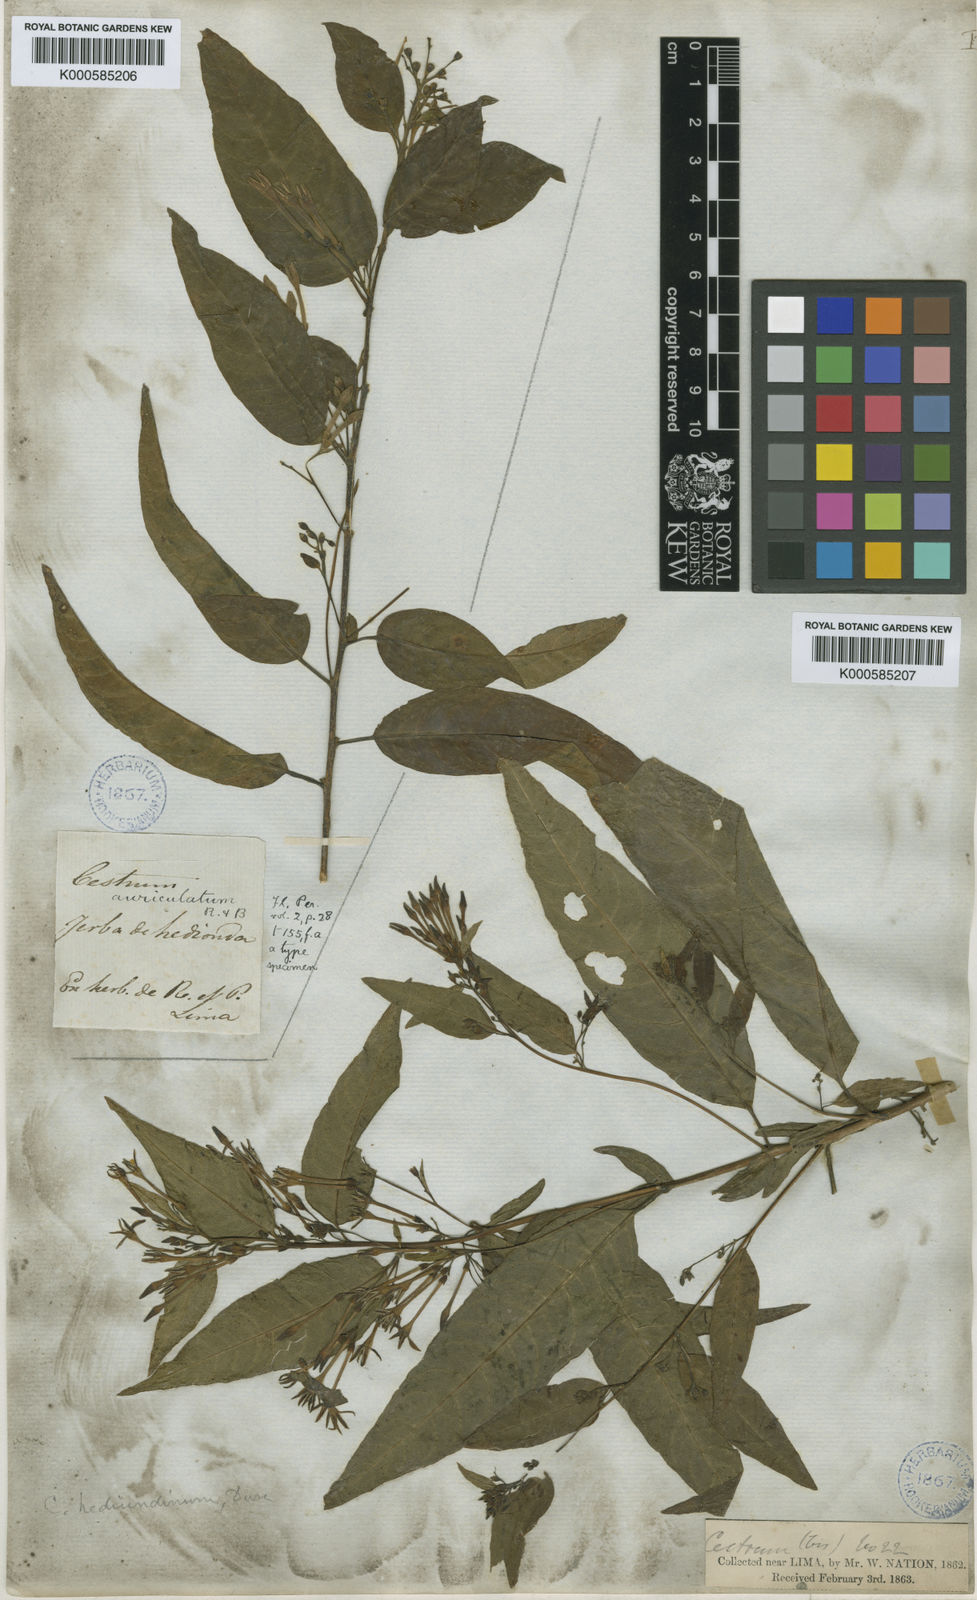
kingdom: Plantae
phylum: Tracheophyta
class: Magnoliopsida
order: Solanales
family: Solanaceae
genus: Cestrum
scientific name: Cestrum
